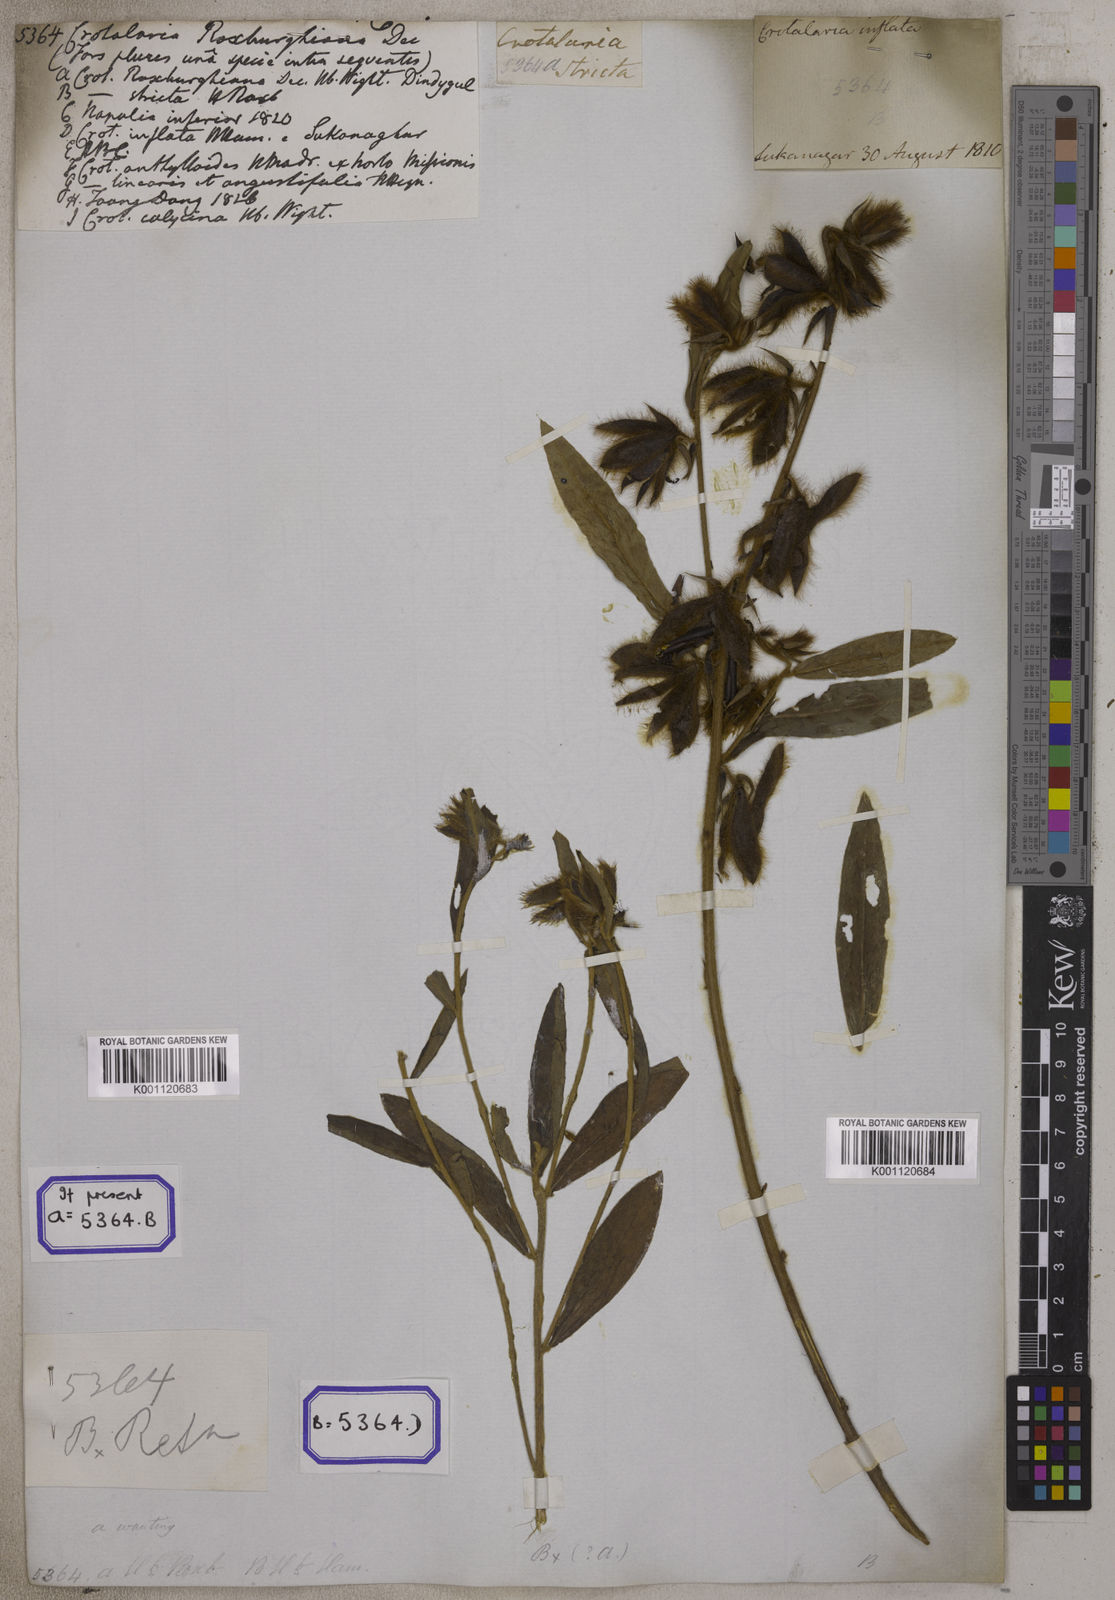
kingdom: Plantae
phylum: Tracheophyta
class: Magnoliopsida
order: Fabales
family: Fabaceae
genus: Crotalaria
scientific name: Crotalaria calycina
